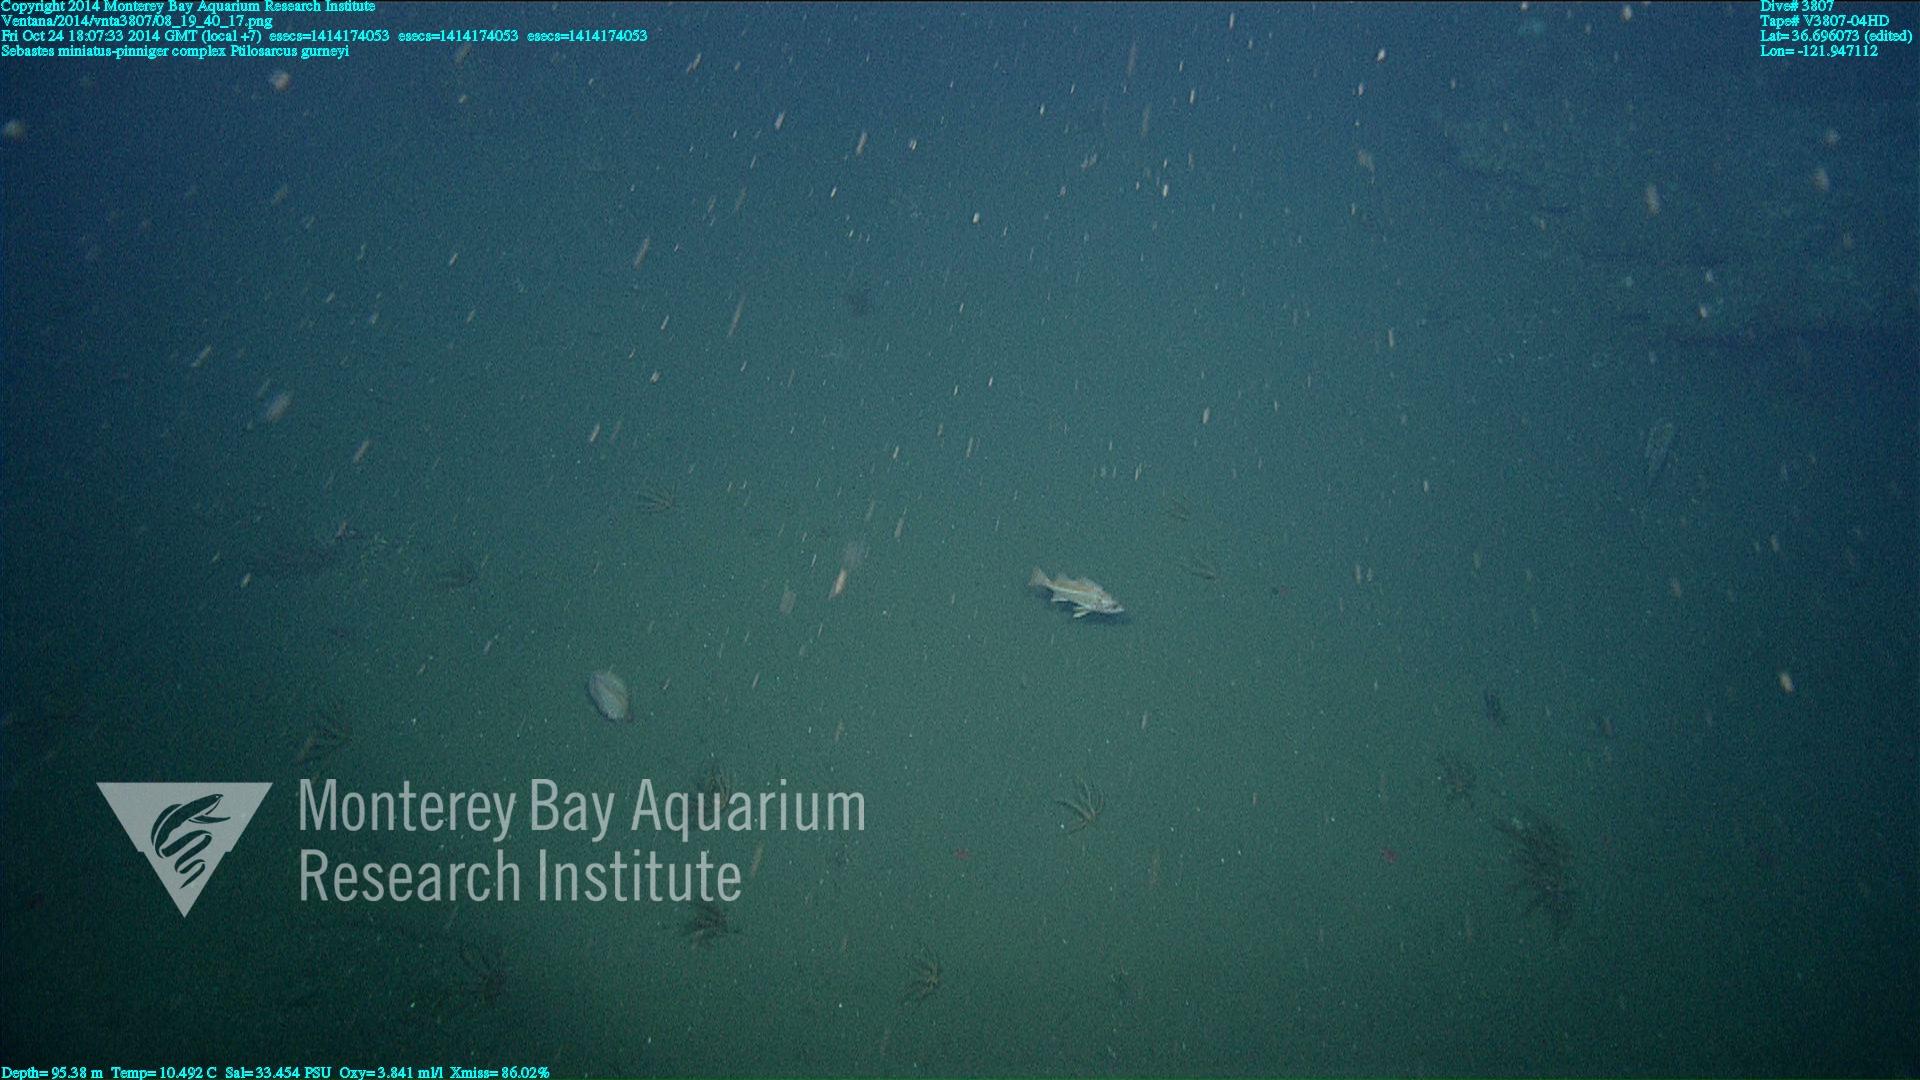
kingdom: Animalia
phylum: Cnidaria
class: Anthozoa
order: Scleralcyonacea
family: Pennatulidae
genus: Ptilosarcus
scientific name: Ptilosarcus gurneyi
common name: Gurney's sea pen
